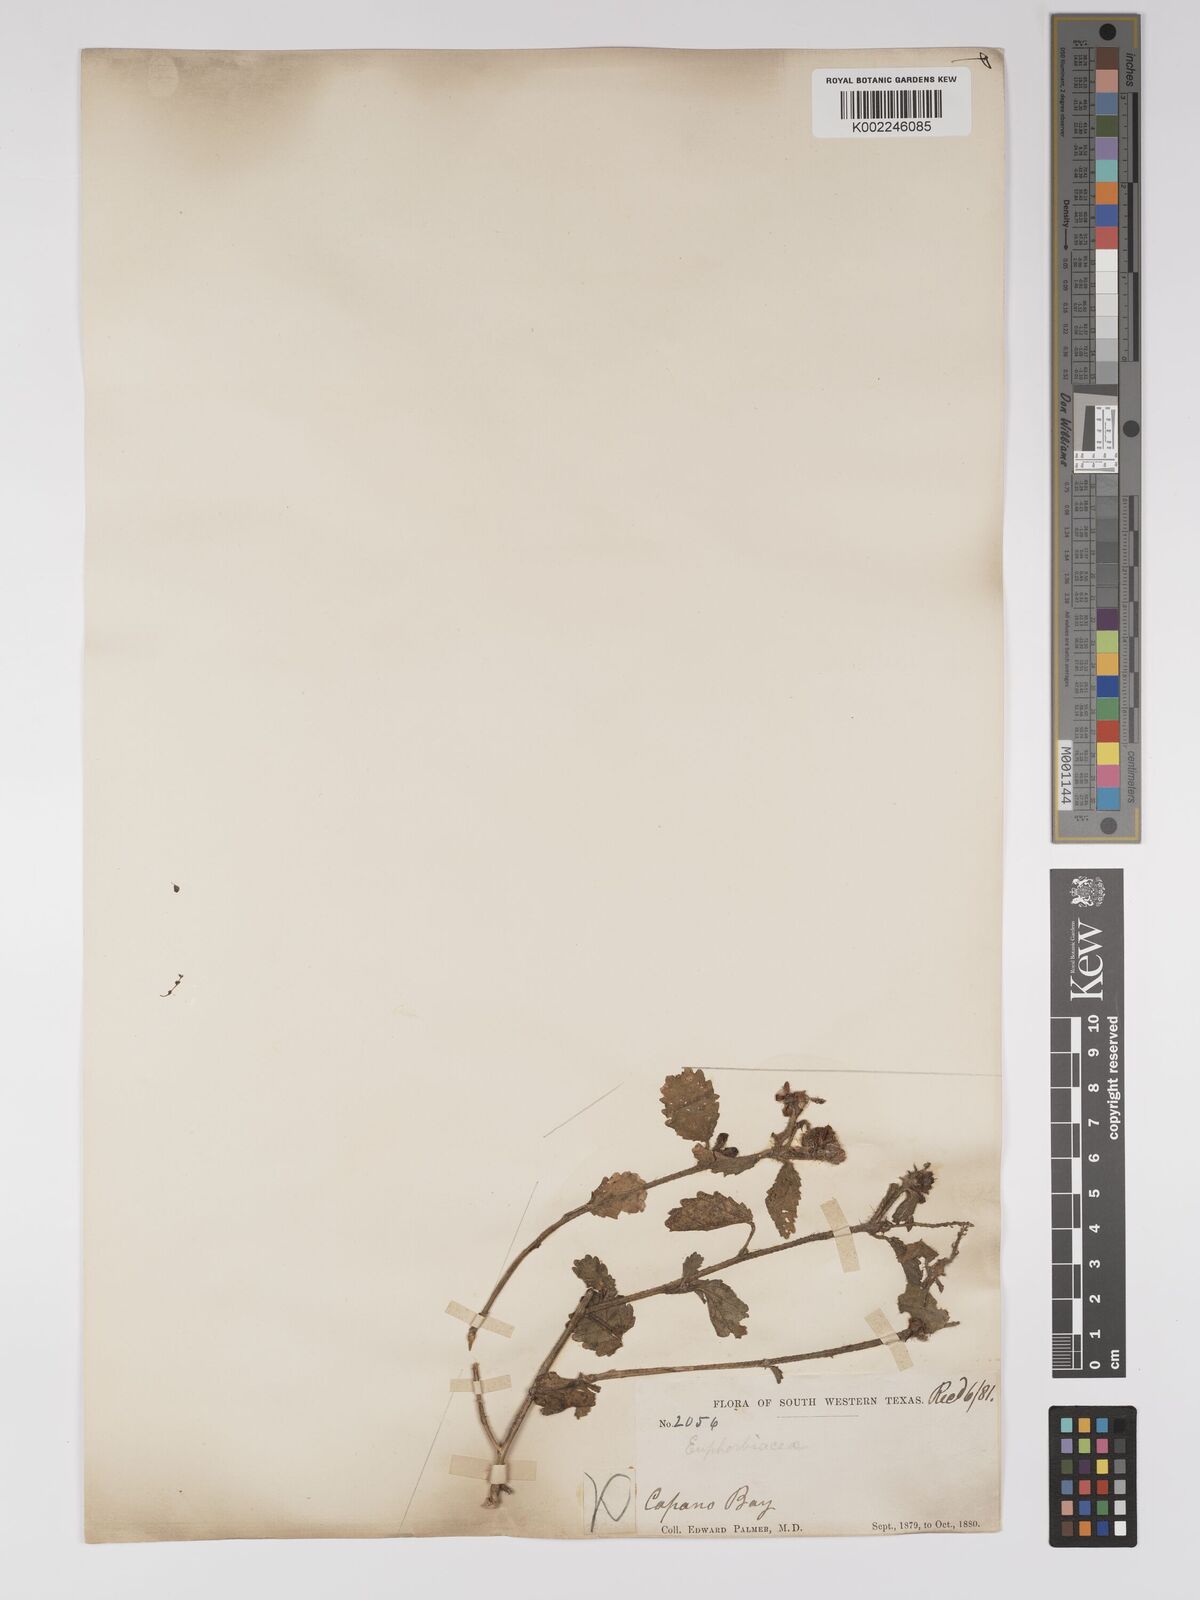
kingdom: Plantae
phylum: Tracheophyta
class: Magnoliopsida
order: Malpighiales
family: Euphorbiaceae
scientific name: Euphorbiaceae
